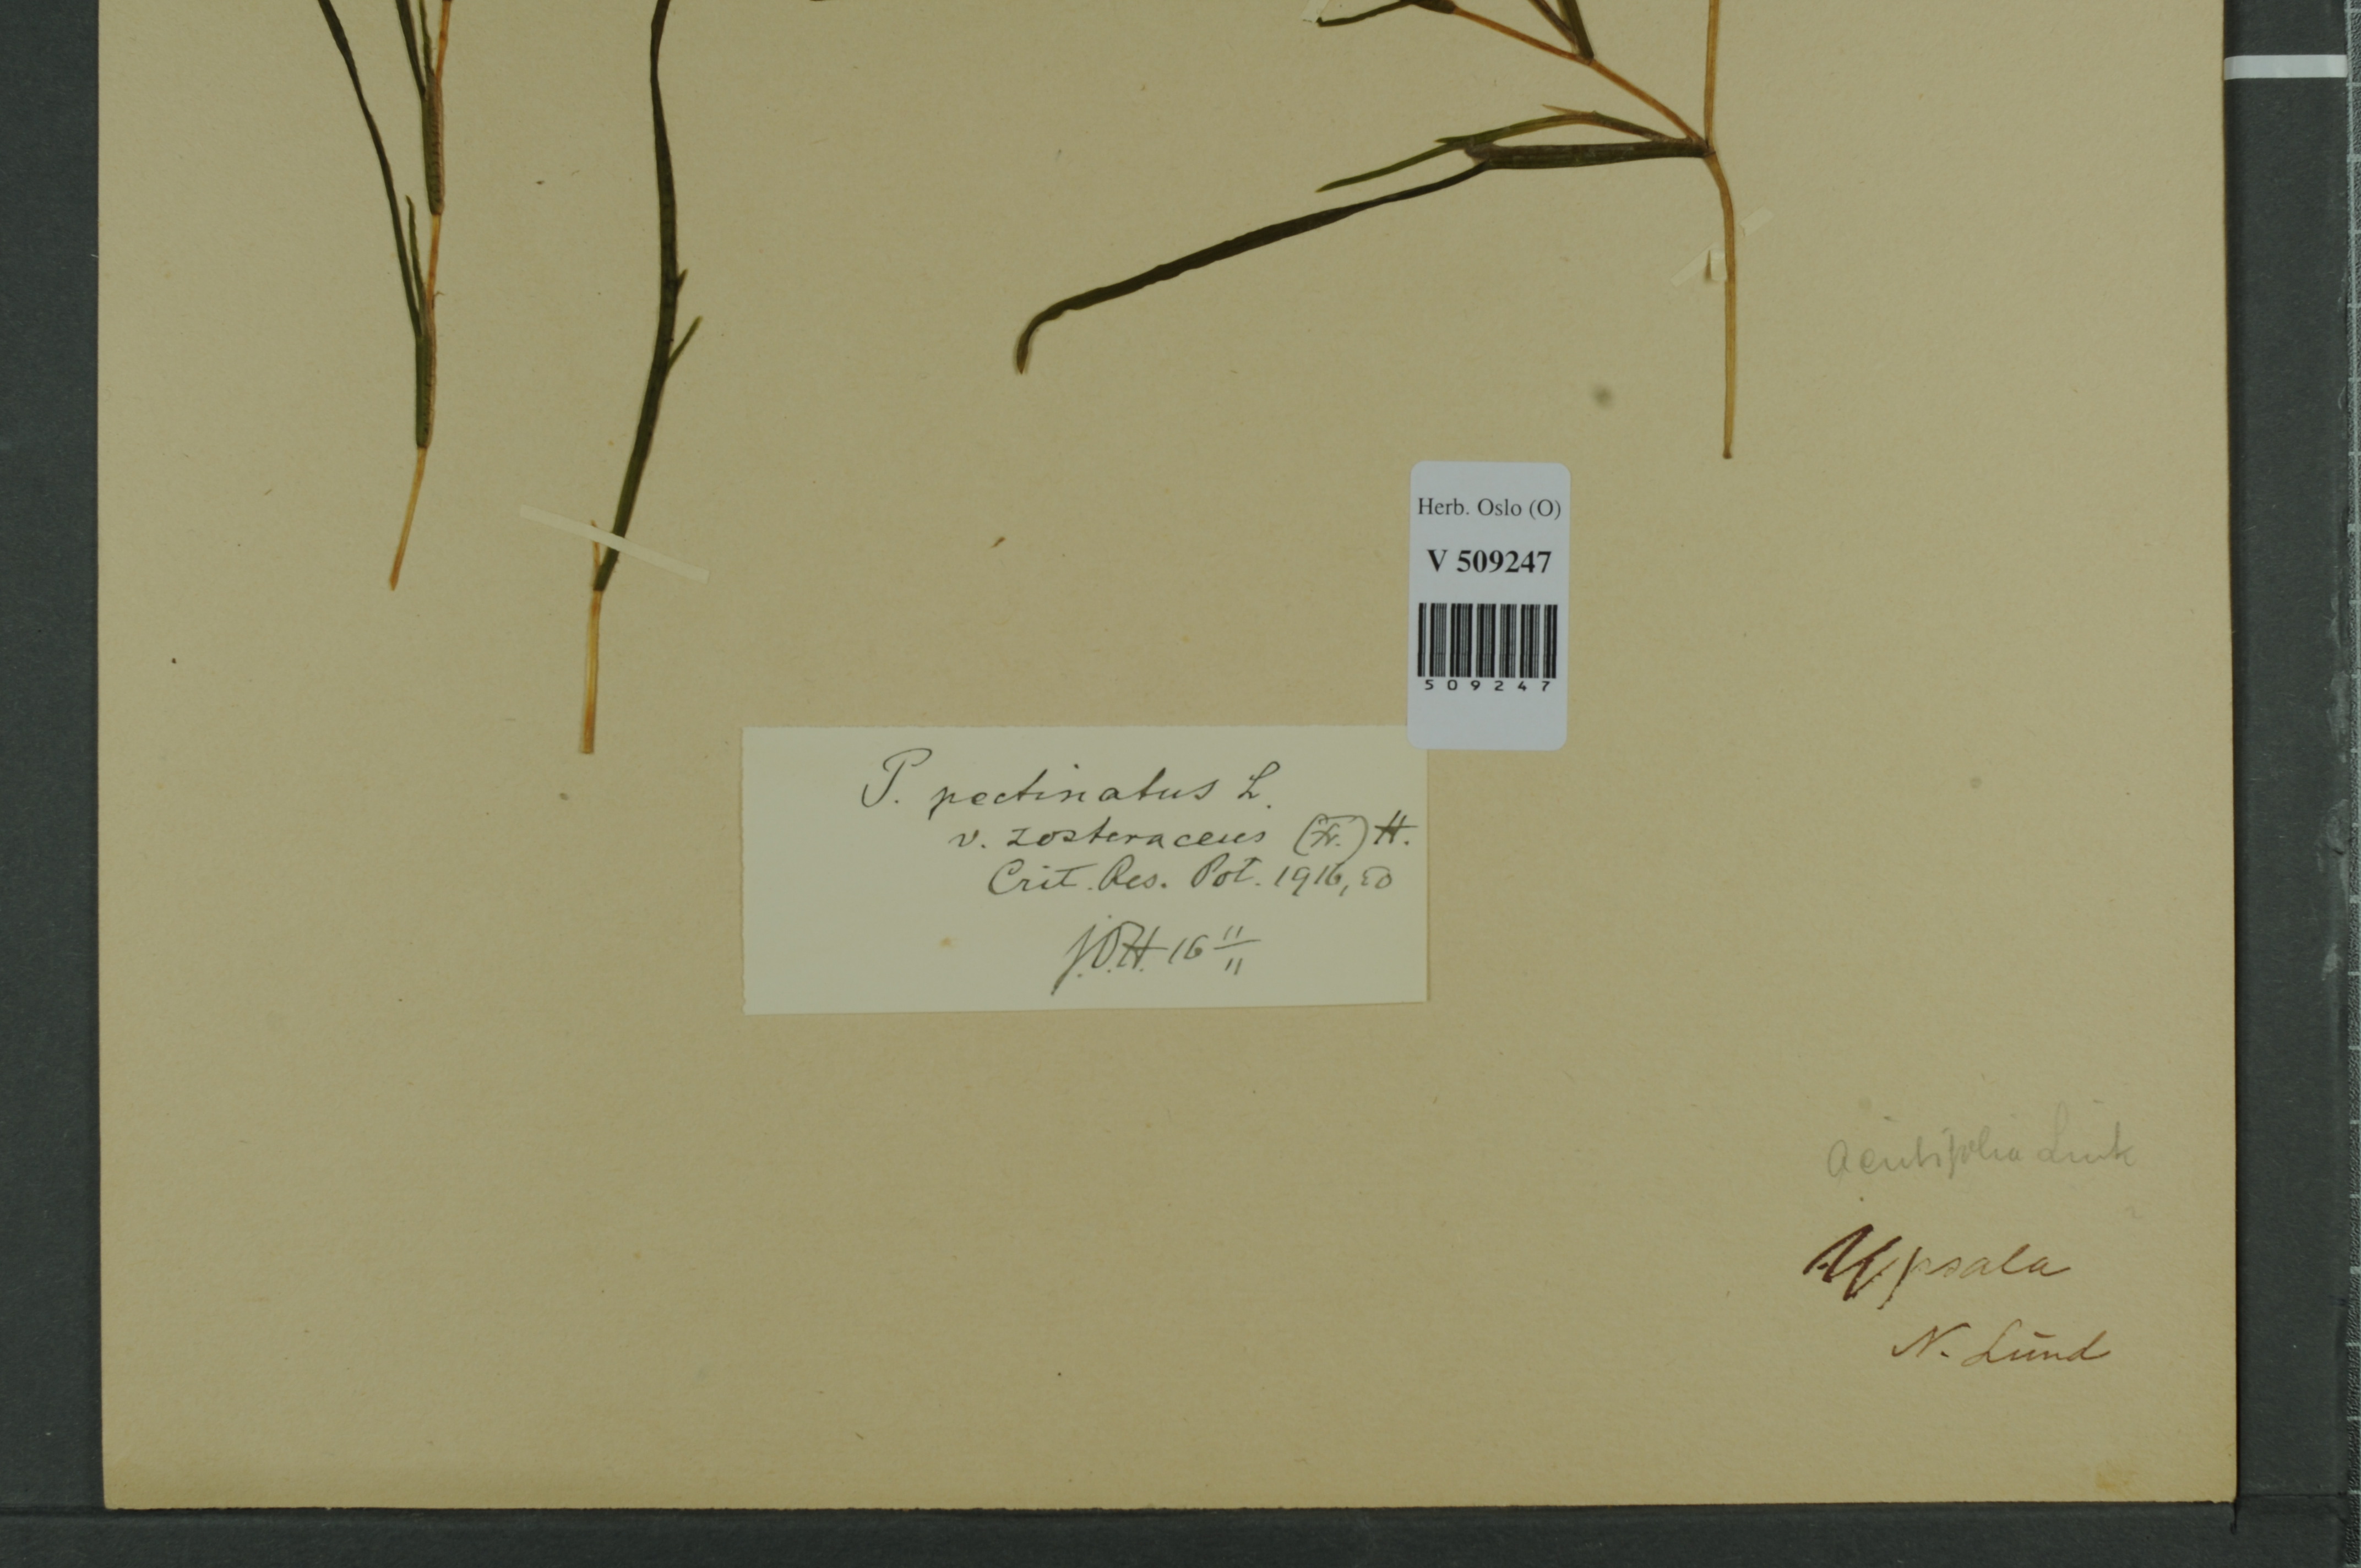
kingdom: Plantae
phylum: Tracheophyta
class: Liliopsida
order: Alismatales
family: Potamogetonaceae
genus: Stuckenia
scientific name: Stuckenia pectinata
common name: Sago pondweed
